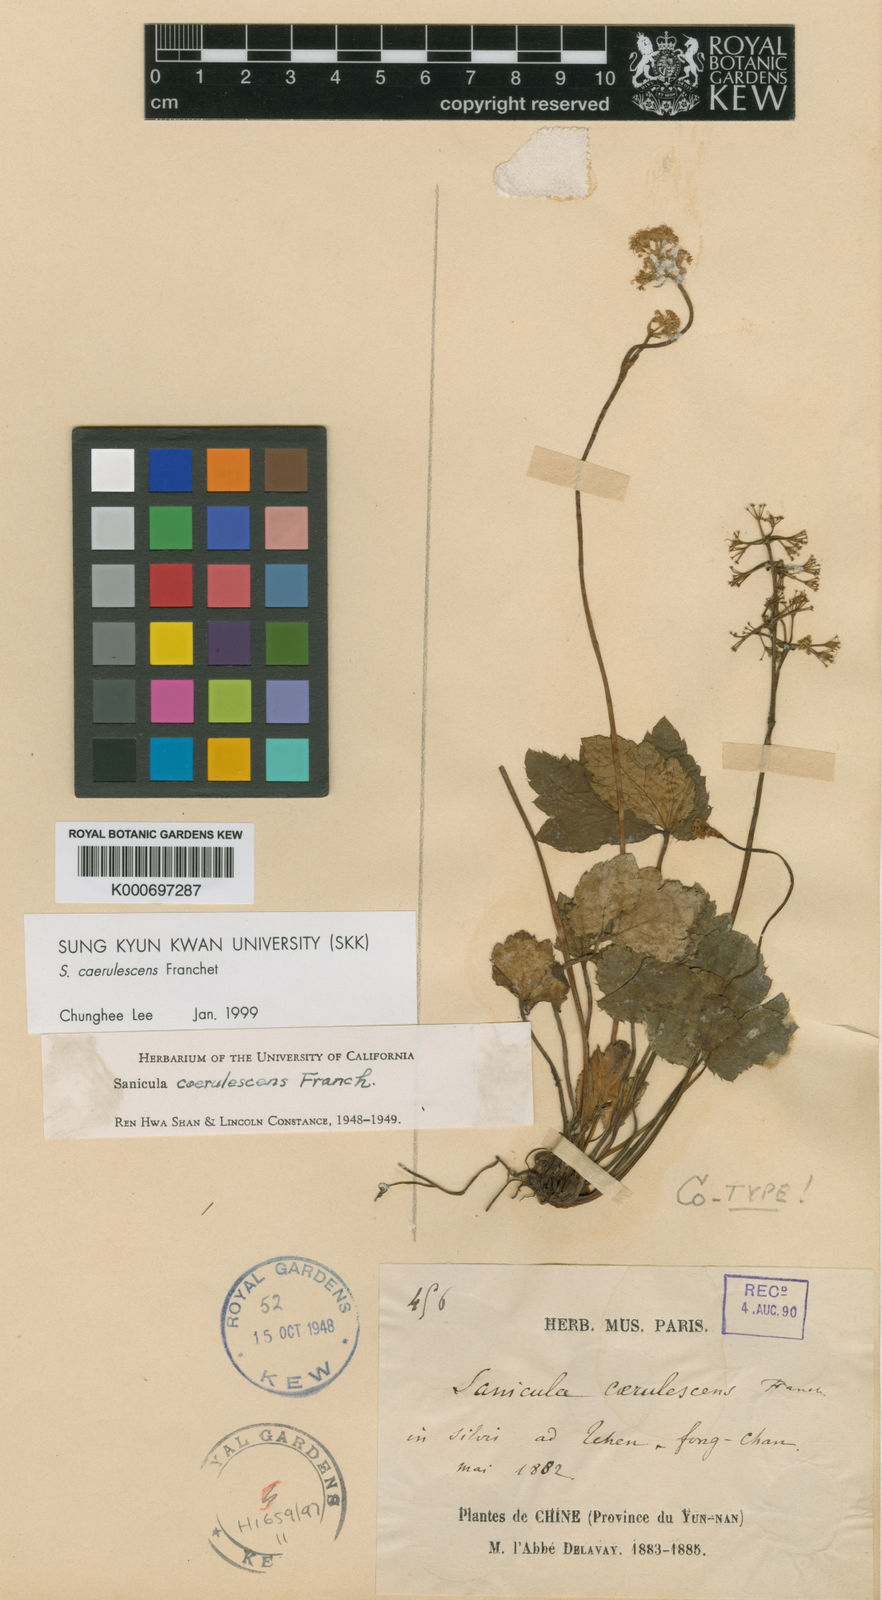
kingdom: Plantae
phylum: Tracheophyta
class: Magnoliopsida
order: Apiales
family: Apiaceae
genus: Sanicula
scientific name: Sanicula
